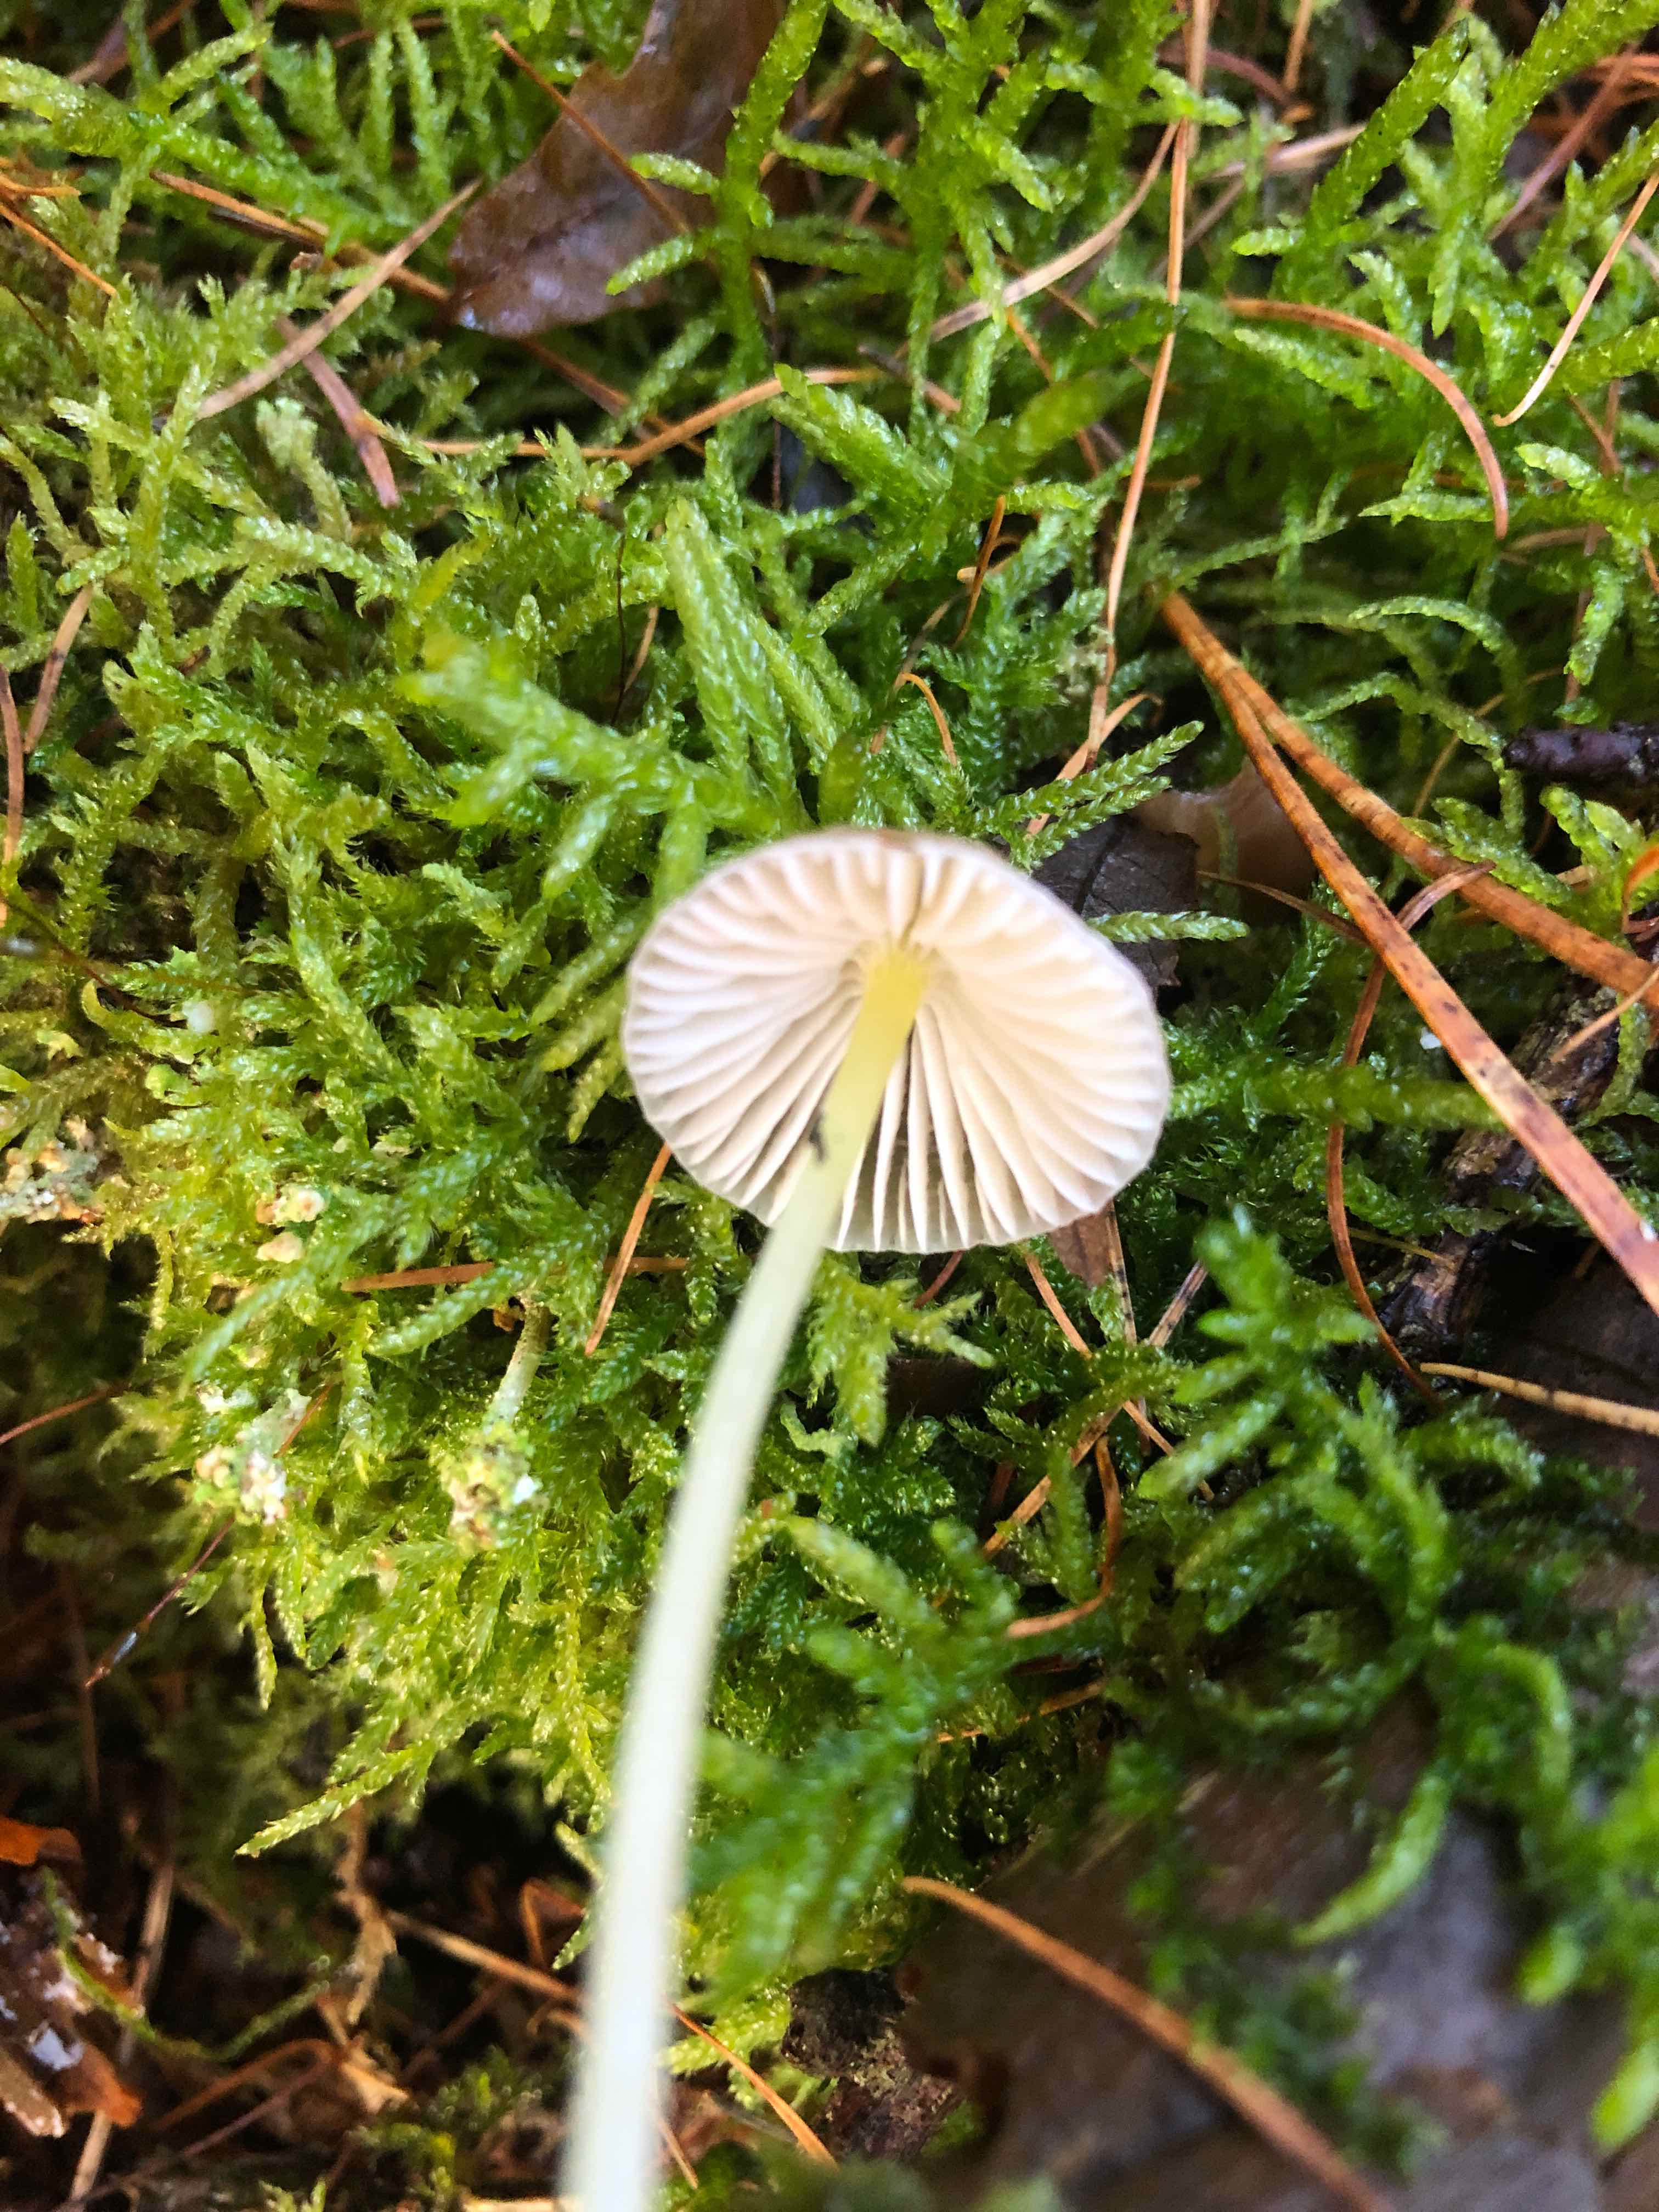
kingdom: Fungi
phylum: Basidiomycota
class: Agaricomycetes
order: Agaricales
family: Mycenaceae
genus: Mycena
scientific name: Mycena epipterygia
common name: gulstokket huesvamp
